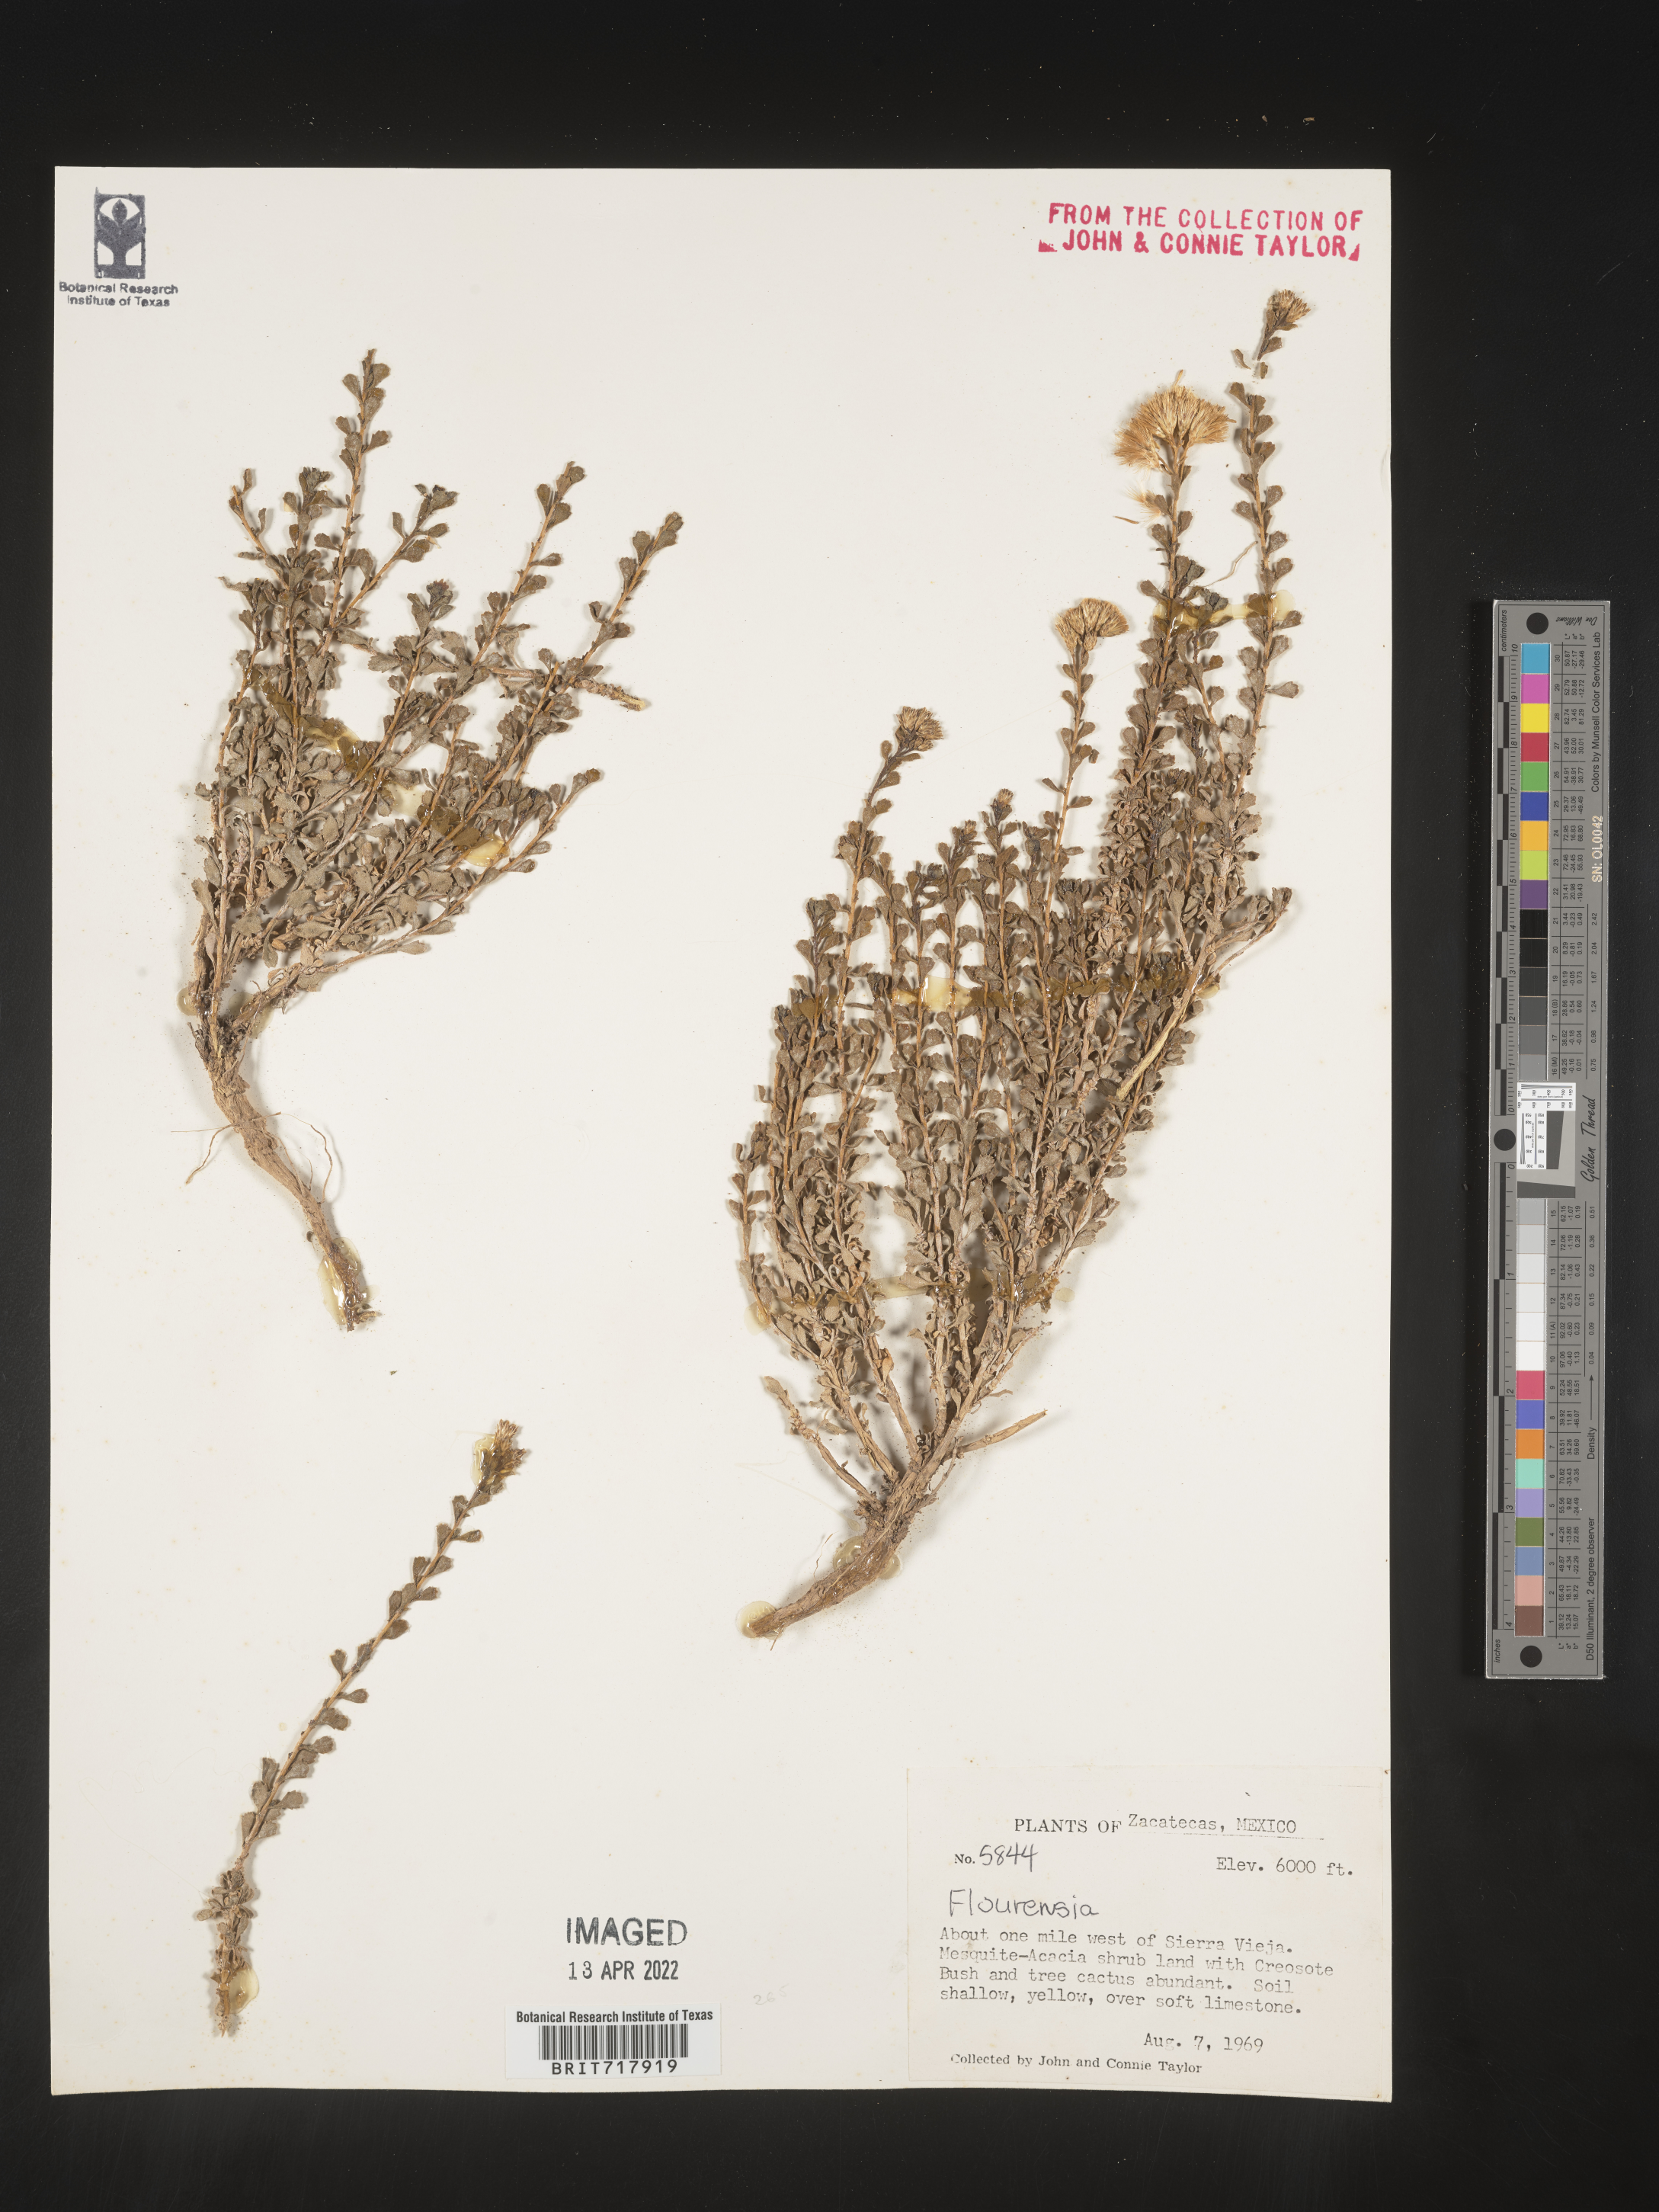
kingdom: Plantae
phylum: Tracheophyta
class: Magnoliopsida
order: Asterales
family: Asteraceae
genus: Flourensia
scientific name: Flourensia
